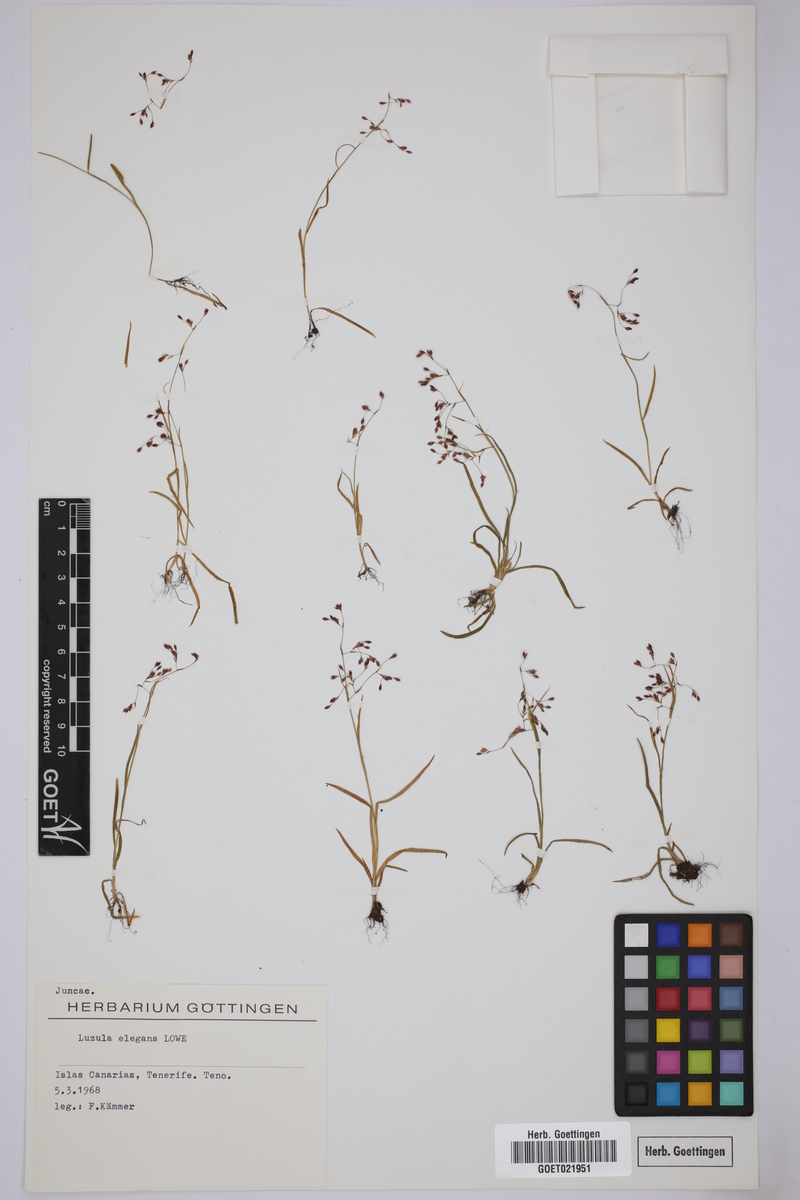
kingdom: Plantae
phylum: Tracheophyta
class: Liliopsida
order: Poales
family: Juncaceae
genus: Luzula
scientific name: Luzula elegans
